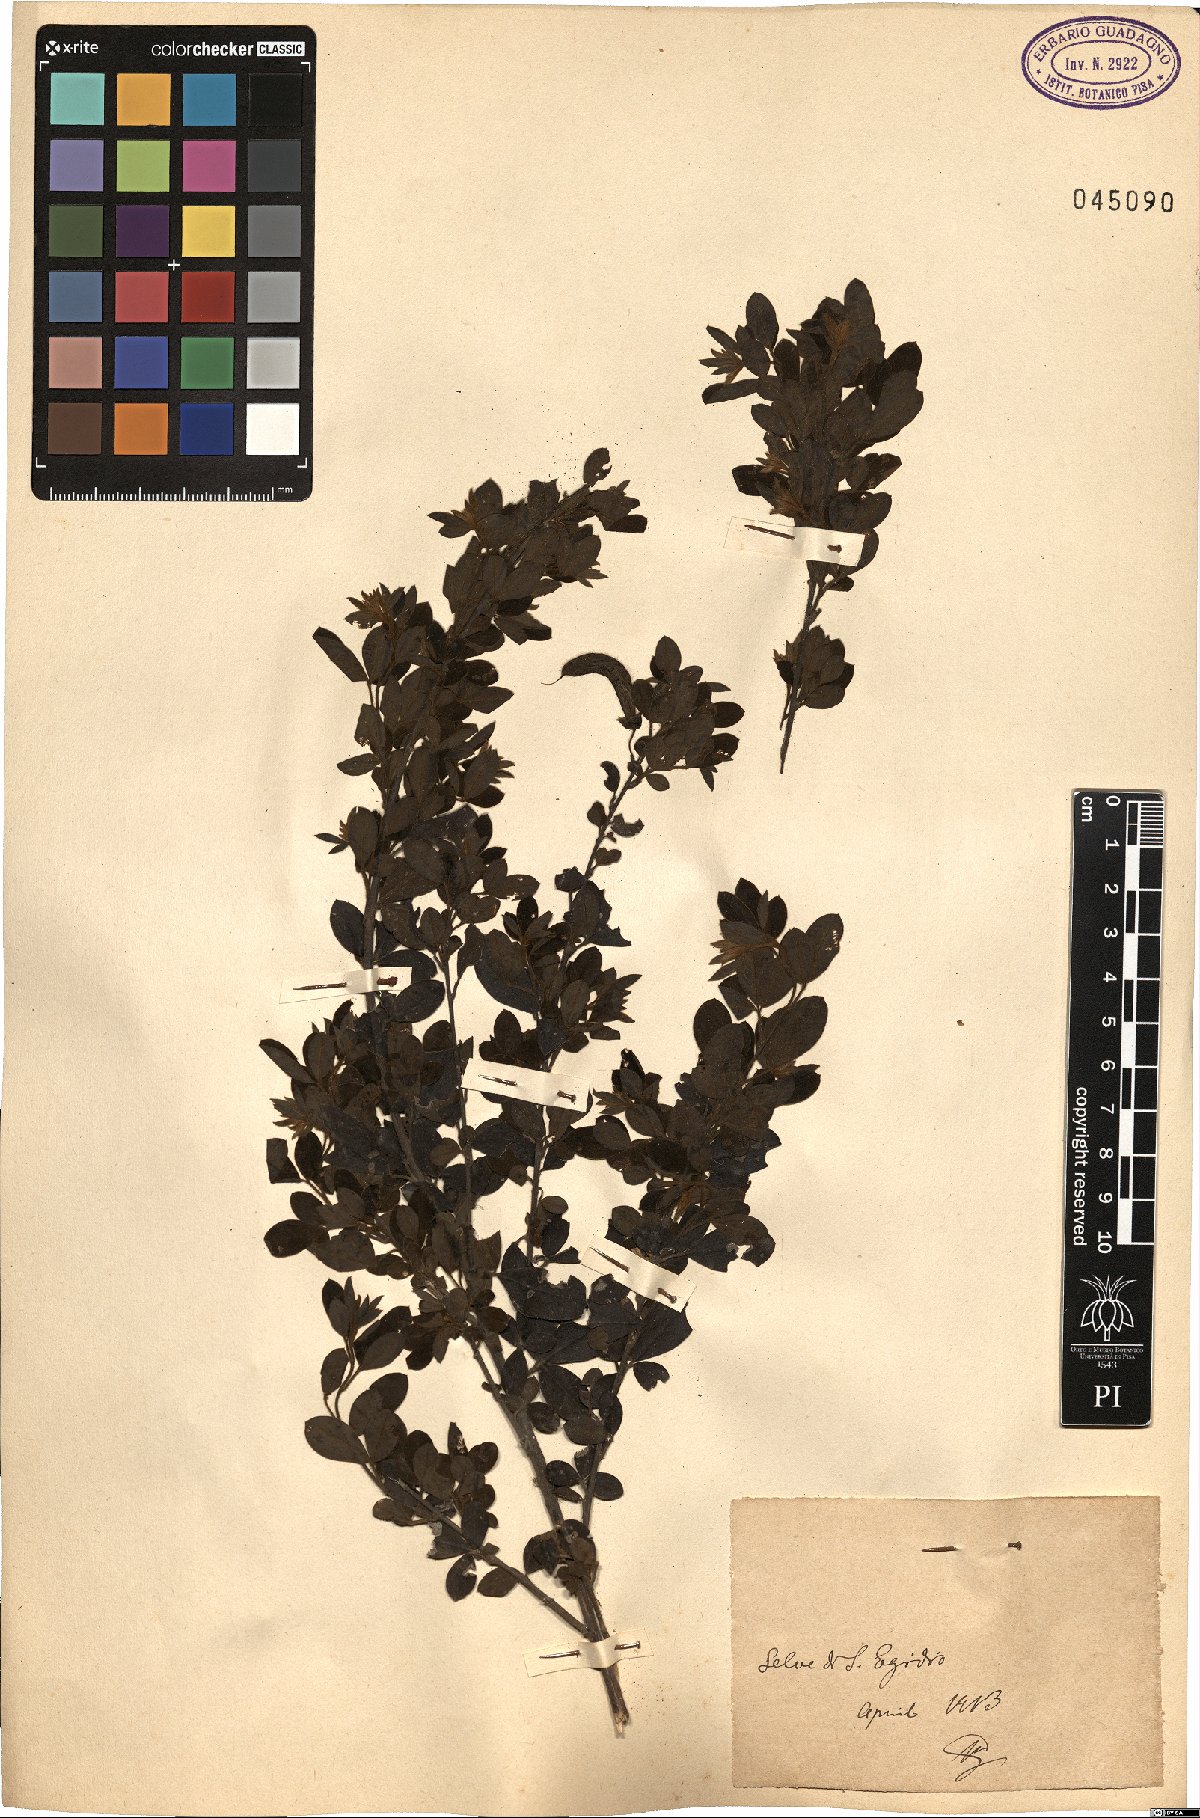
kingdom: Plantae
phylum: Tracheophyta
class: Magnoliopsida
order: Fabales
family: Fabaceae
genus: Cytisus
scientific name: Cytisus
